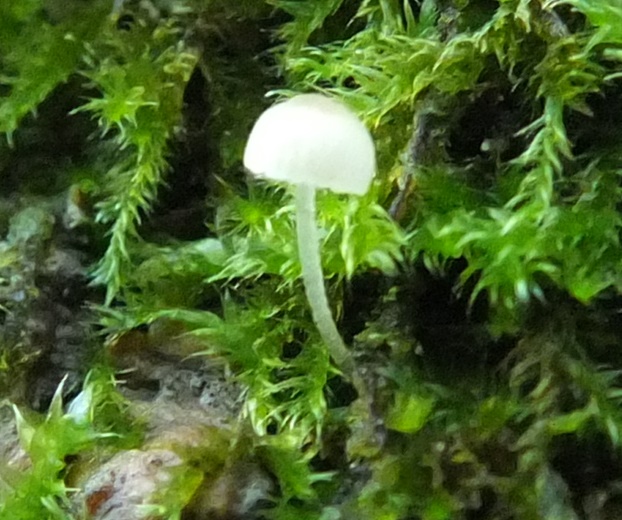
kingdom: Fungi
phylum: Basidiomycota
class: Agaricomycetes
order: Agaricales
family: Porotheleaceae
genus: Phloeomana
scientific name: Phloeomana hiemalis
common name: sen huesvamp
